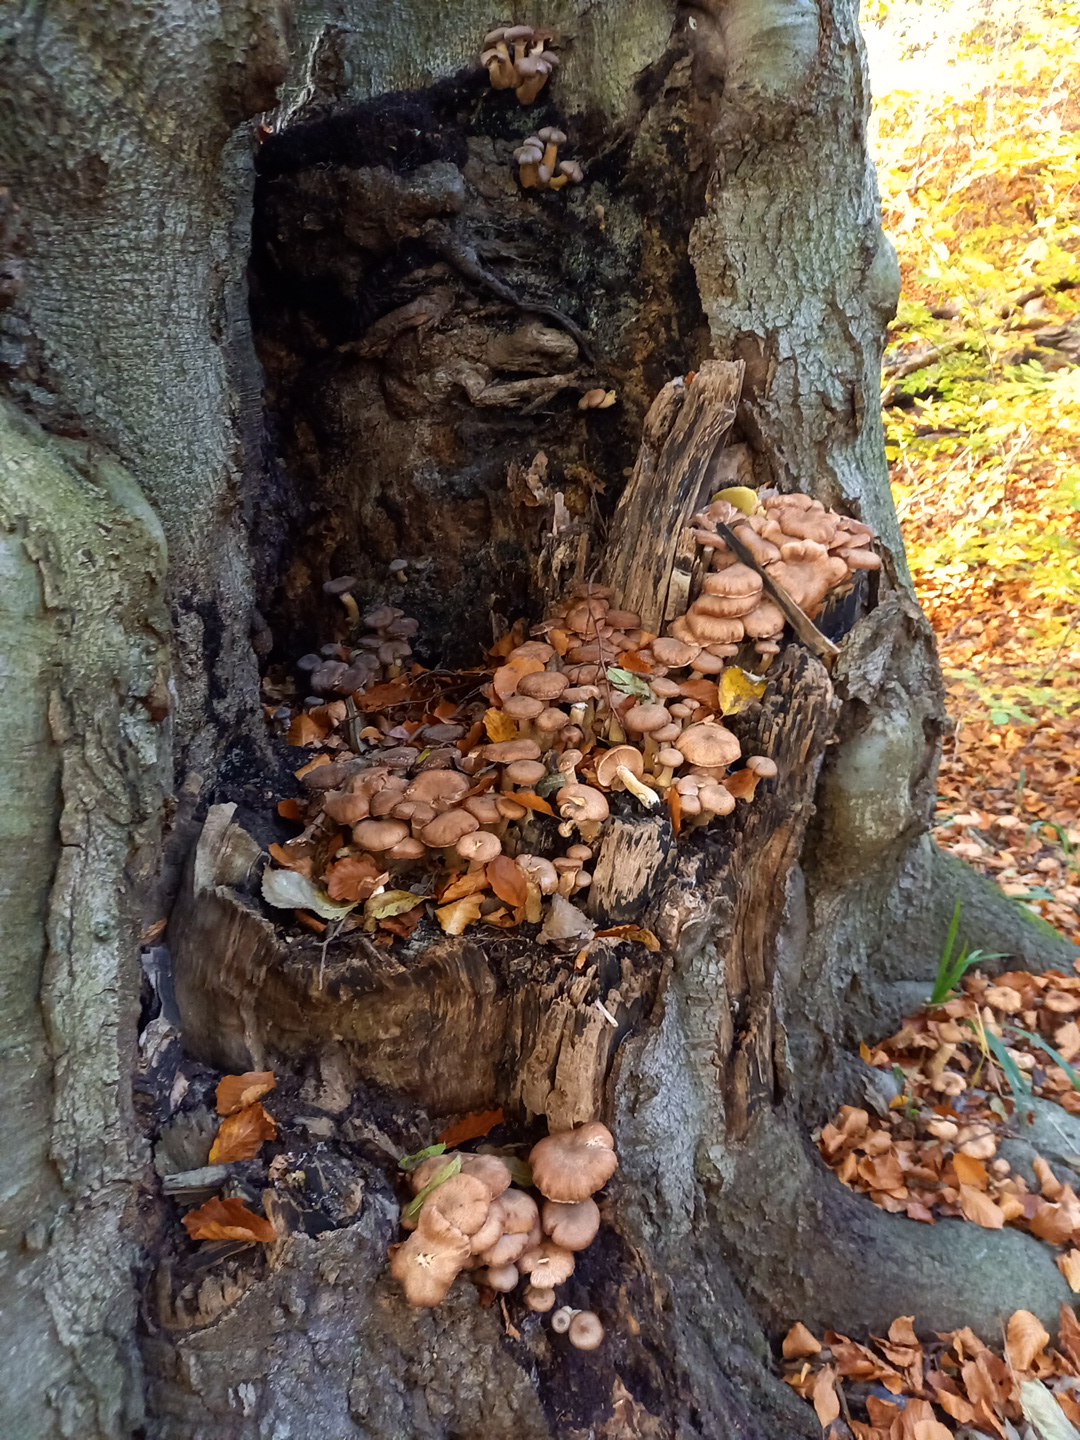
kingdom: Fungi
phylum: Basidiomycota
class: Agaricomycetes
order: Agaricales
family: Physalacriaceae
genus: Armillaria
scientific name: Armillaria lutea
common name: køllestokket honningsvamp
